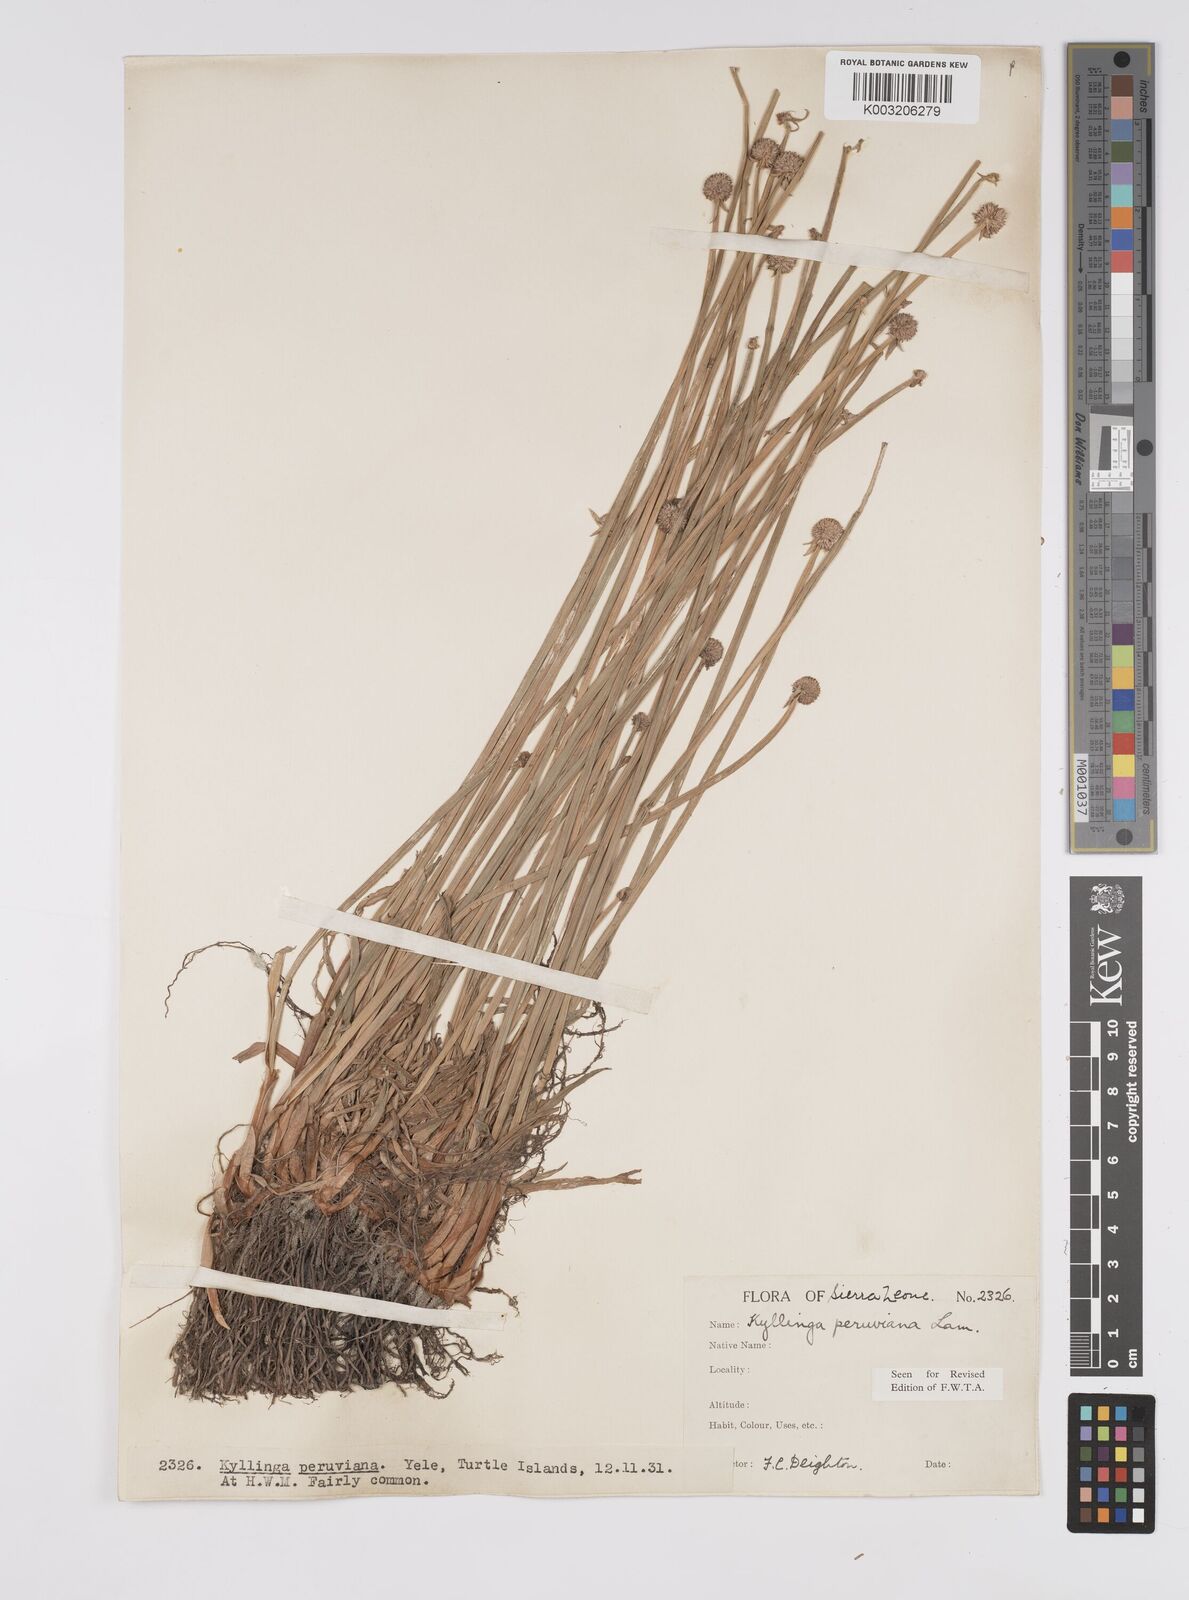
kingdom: Plantae
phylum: Tracheophyta
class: Liliopsida
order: Poales
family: Cyperaceae
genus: Cyperus
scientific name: Cyperus obtusatus
